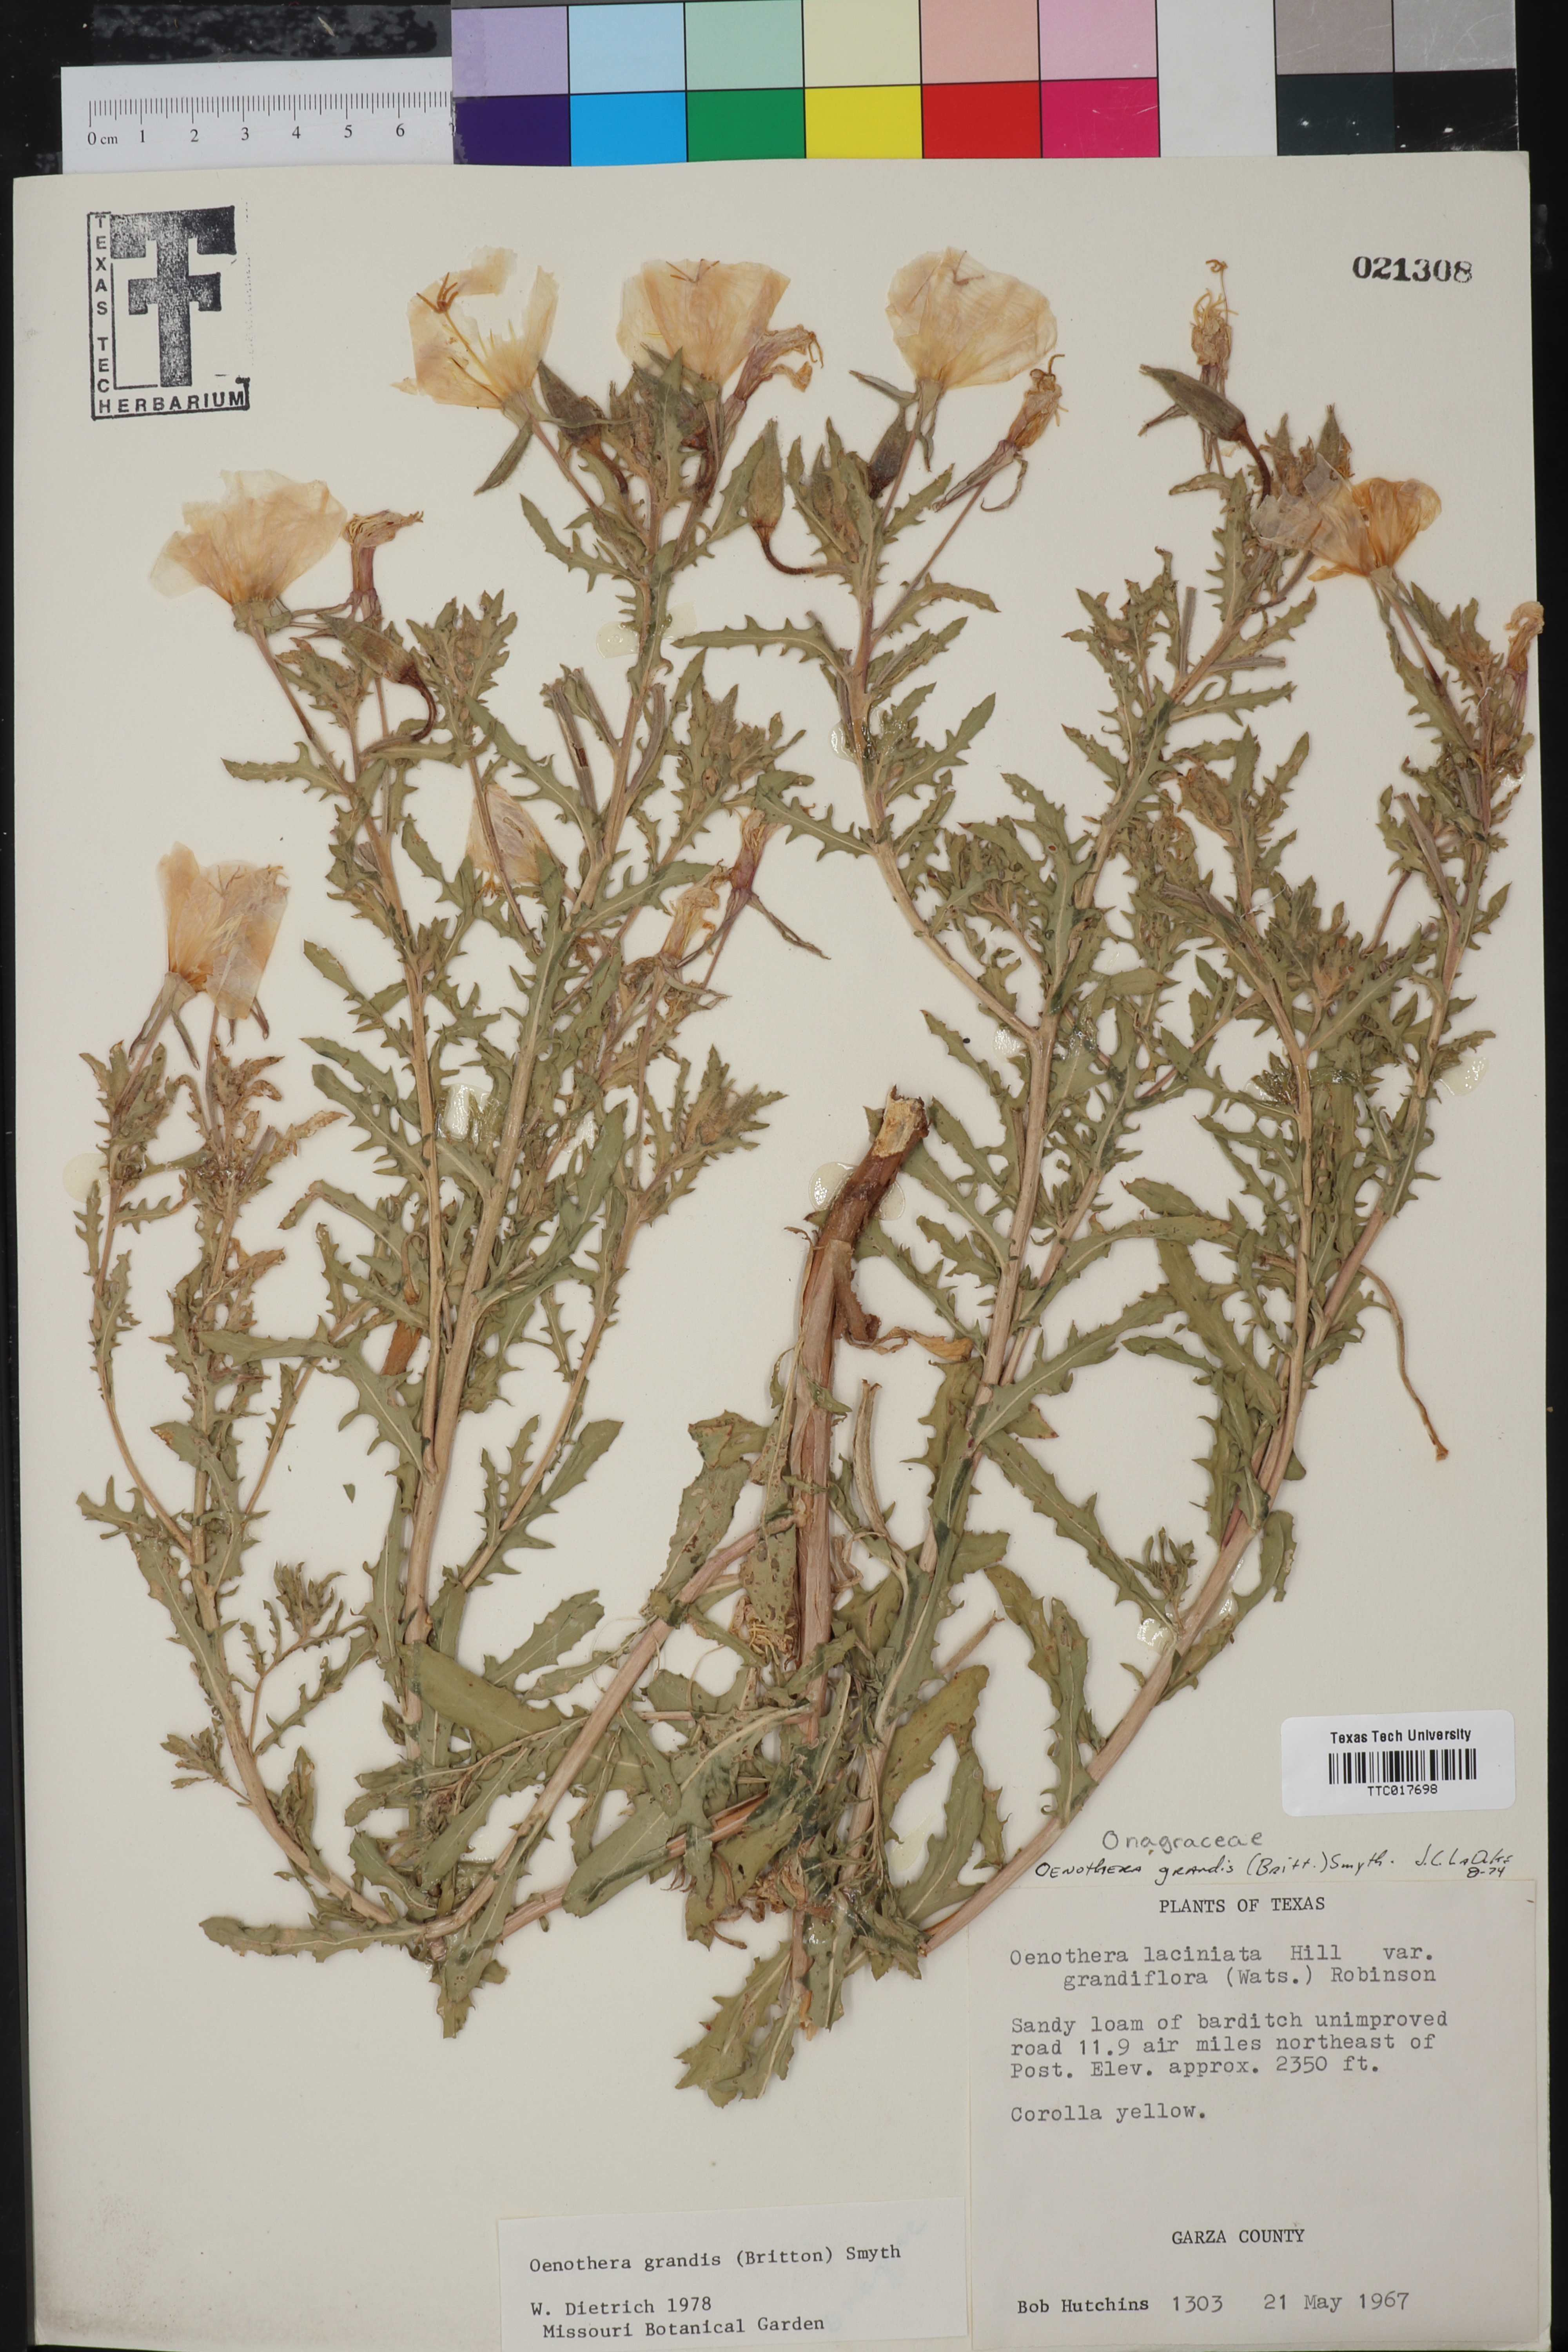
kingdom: Plantae
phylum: Tracheophyta
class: Magnoliopsida
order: Myrtales
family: Onagraceae
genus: Oenothera
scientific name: Oenothera grandis
